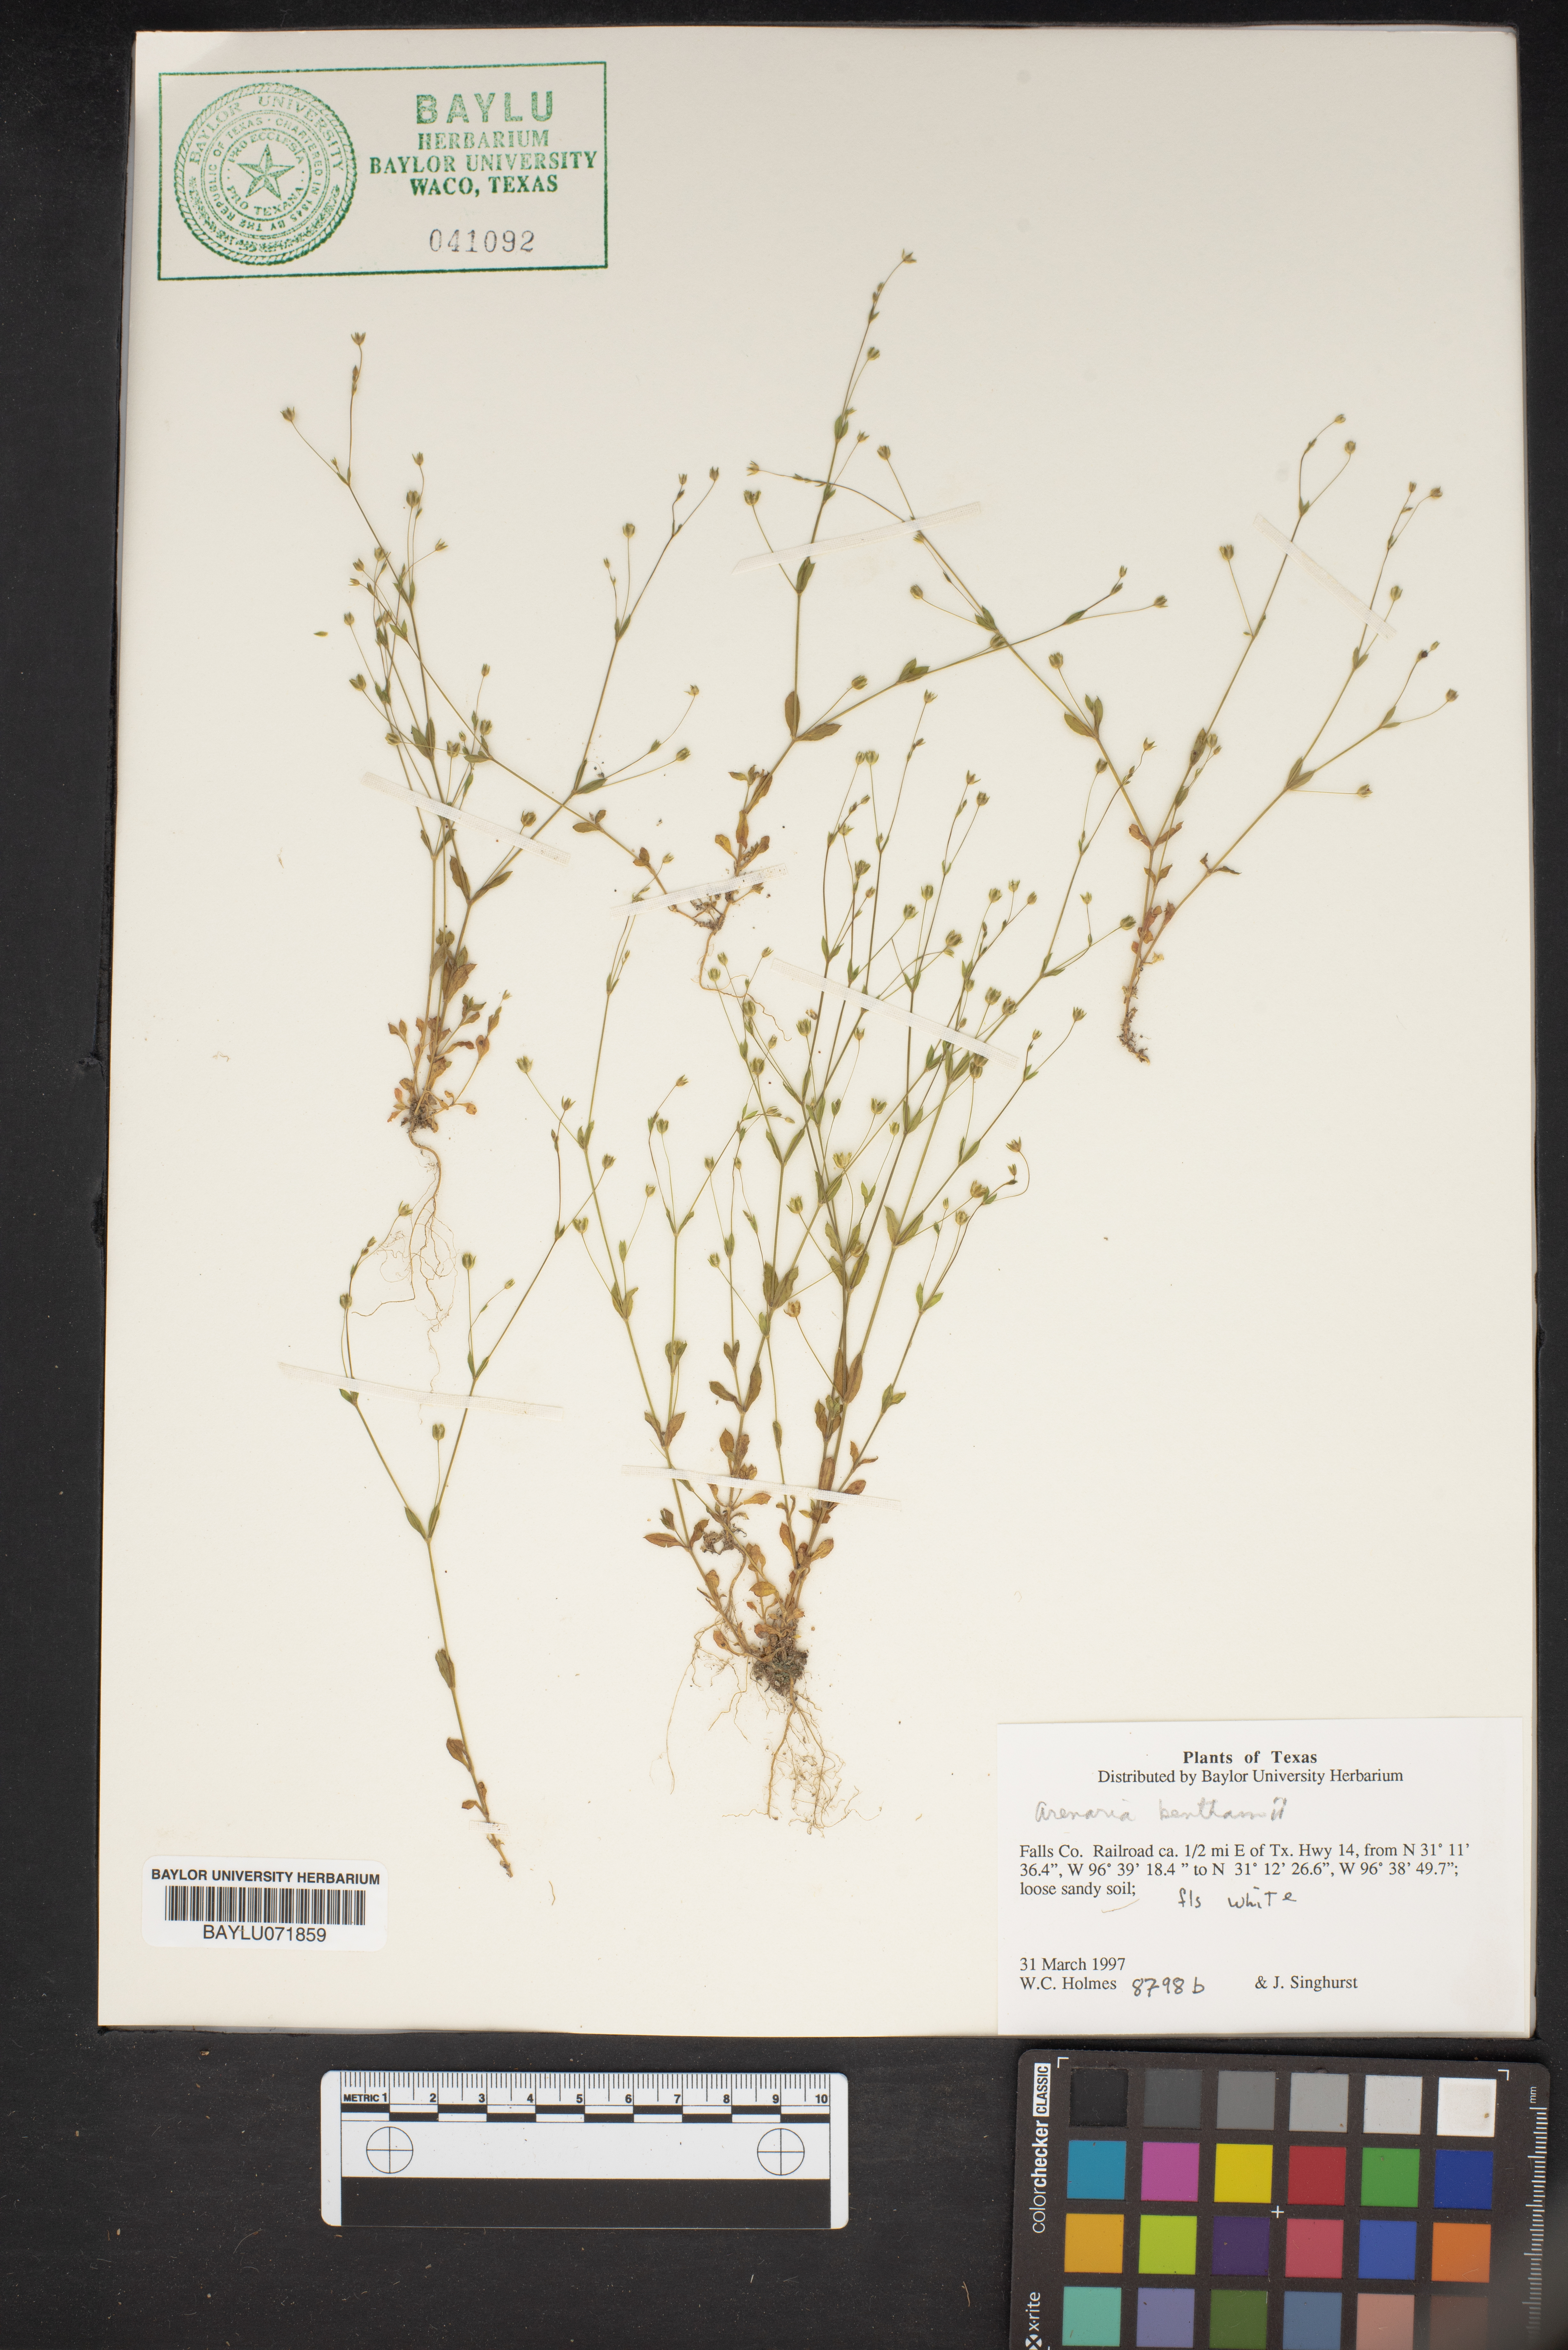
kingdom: Plantae
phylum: Tracheophyta
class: Magnoliopsida
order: Caryophyllales
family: Caryophyllaceae
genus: Arenaria
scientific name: Arenaria benthamii
